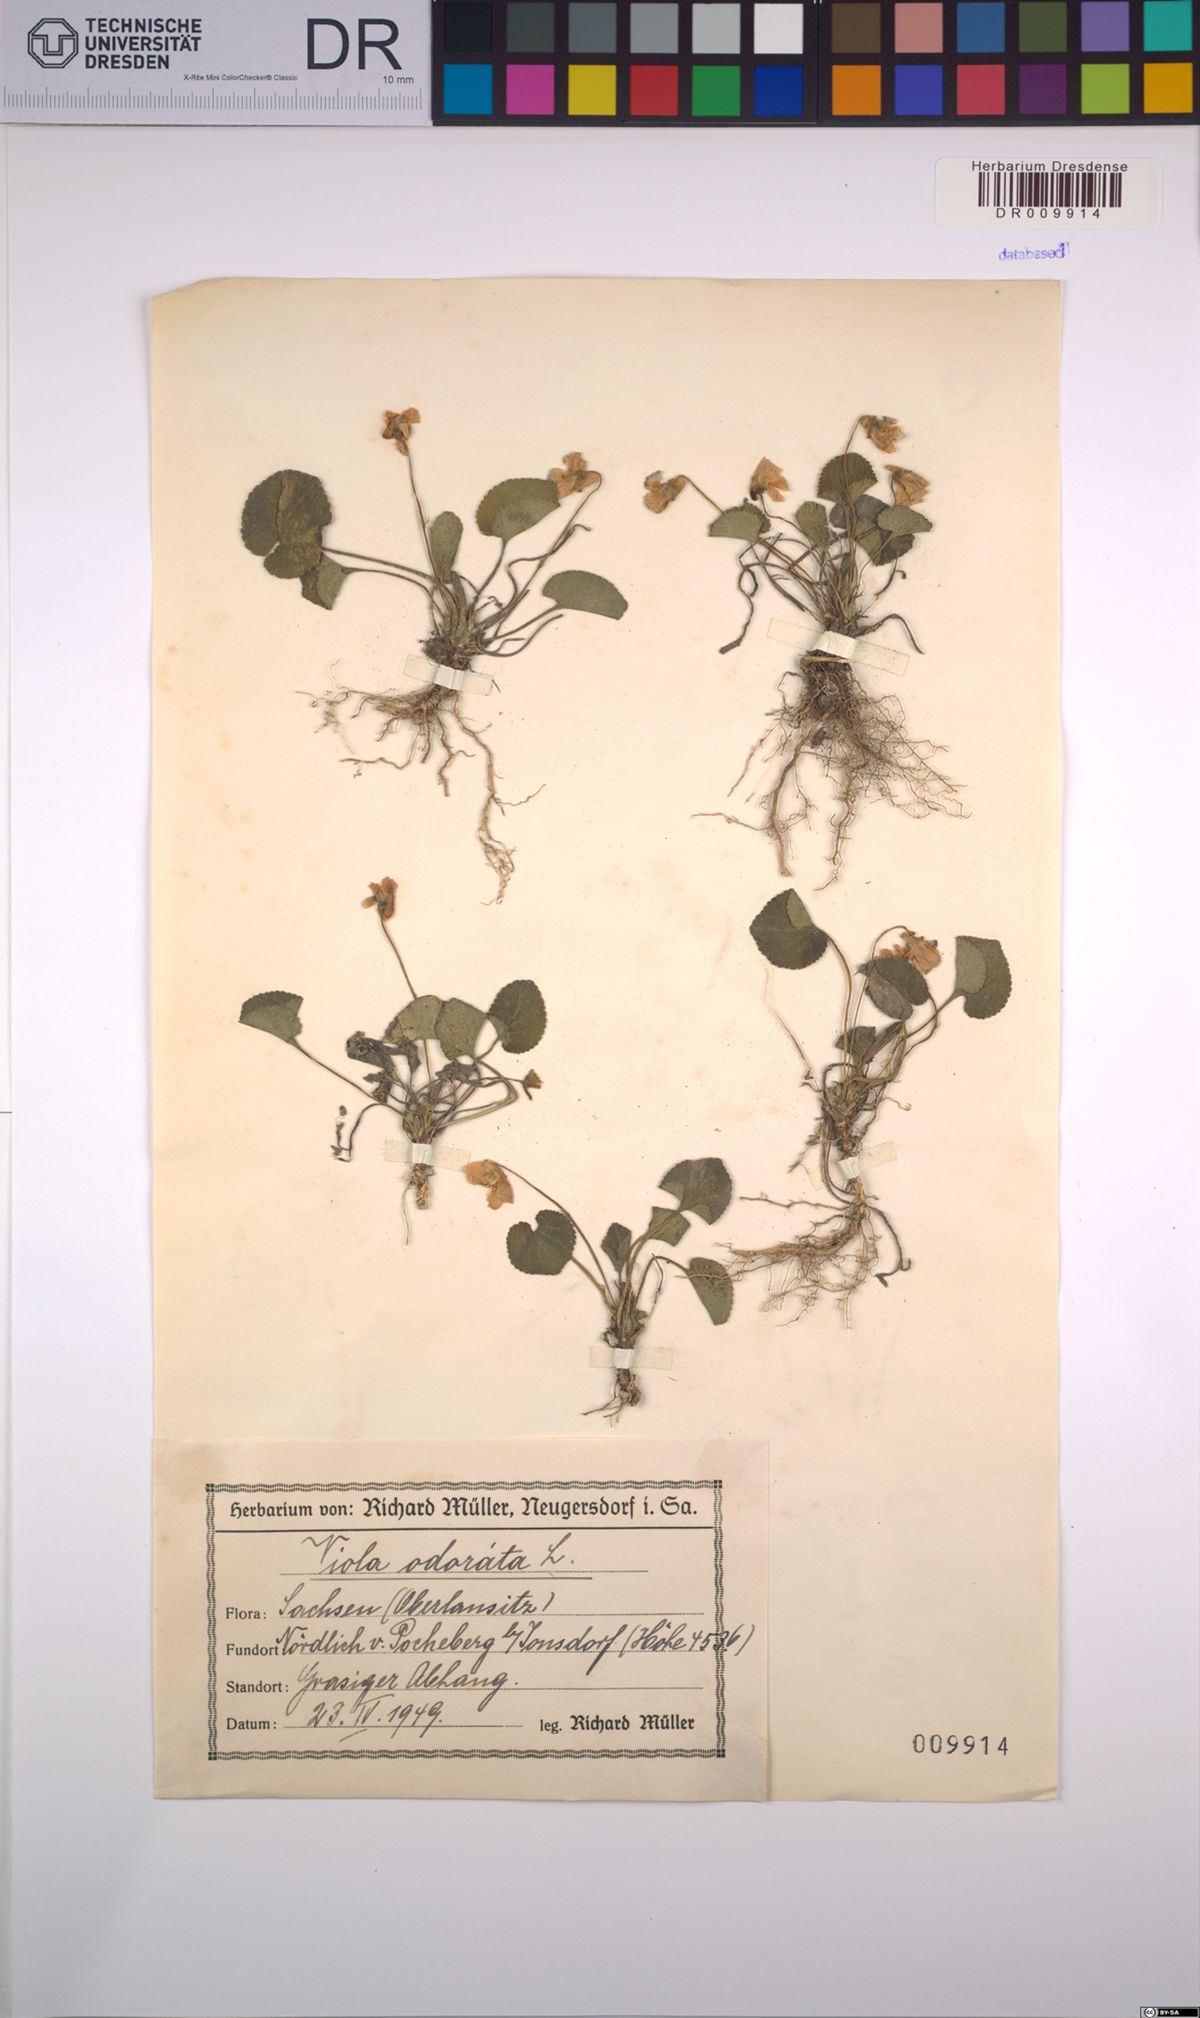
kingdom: Plantae
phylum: Tracheophyta
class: Magnoliopsida
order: Malpighiales
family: Violaceae
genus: Viola
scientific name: Viola odorata
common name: Sweet violet
